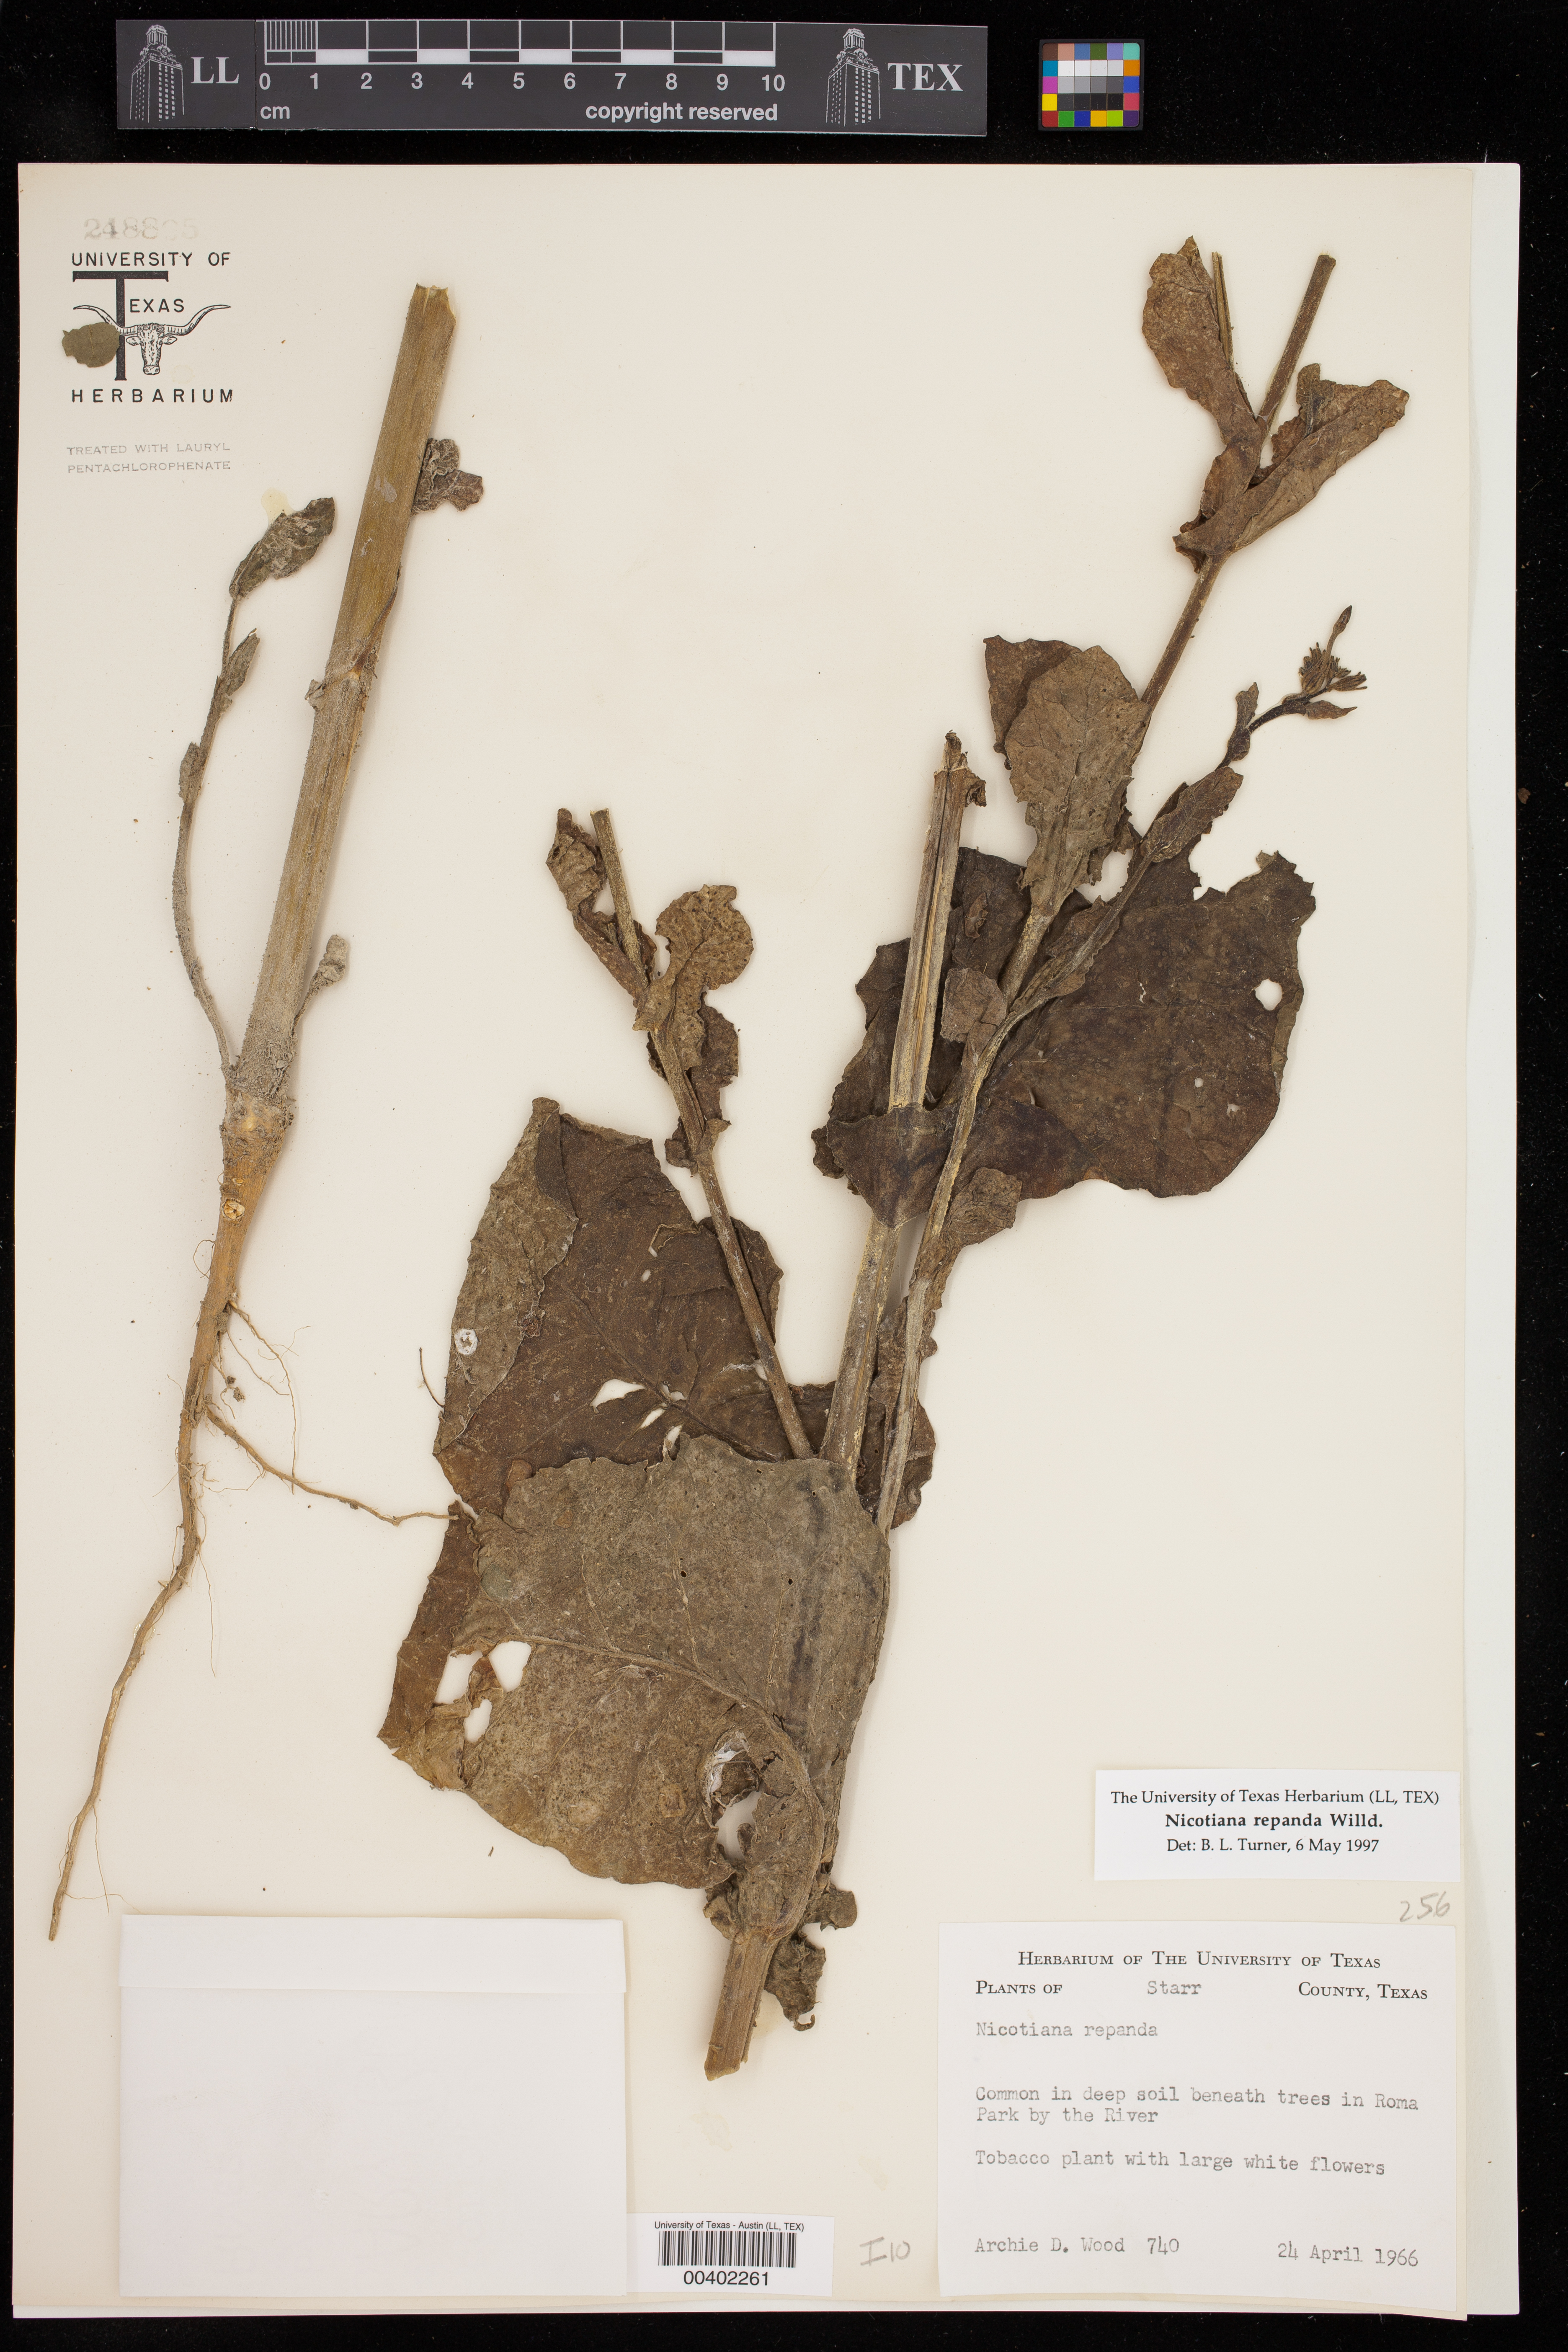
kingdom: Plantae
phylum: Tracheophyta
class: Magnoliopsida
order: Solanales
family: Solanaceae
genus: Nicotiana
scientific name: Nicotiana repanda
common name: Fiddle-leaf tobacco
